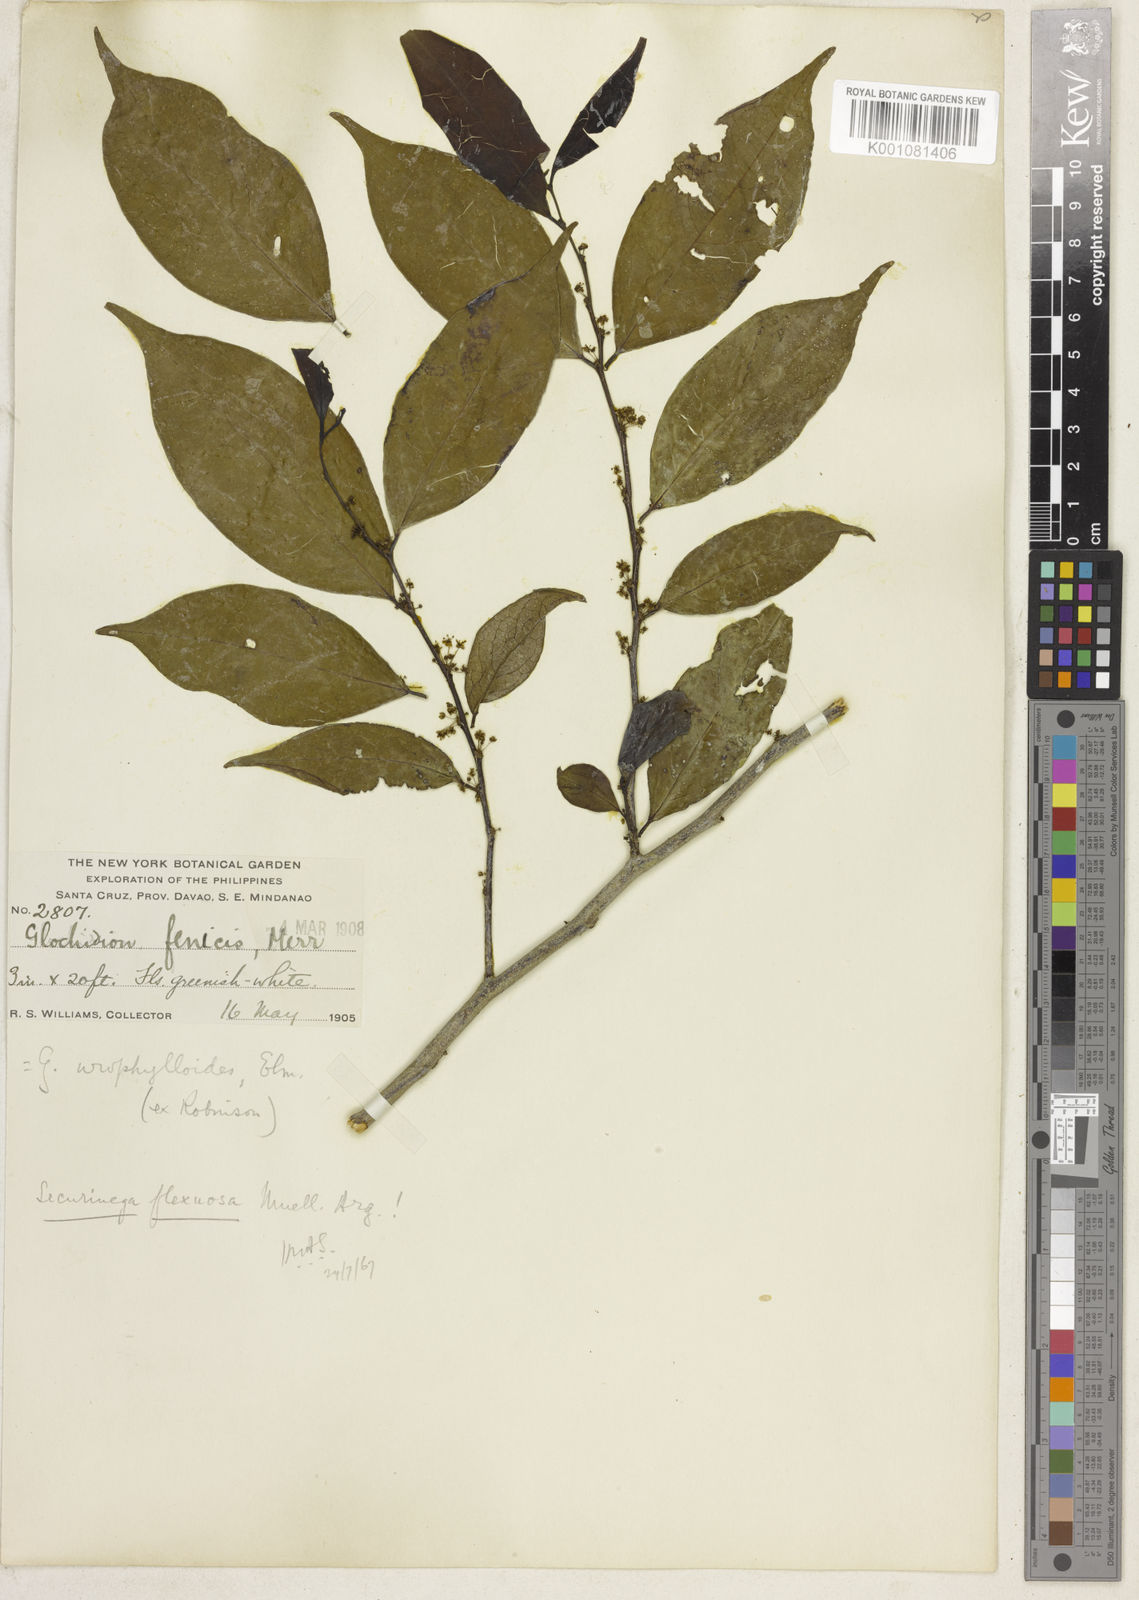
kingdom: Plantae
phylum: Tracheophyta
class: Magnoliopsida
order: Malpighiales
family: Phyllanthaceae
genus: Flueggea
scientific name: Flueggea
